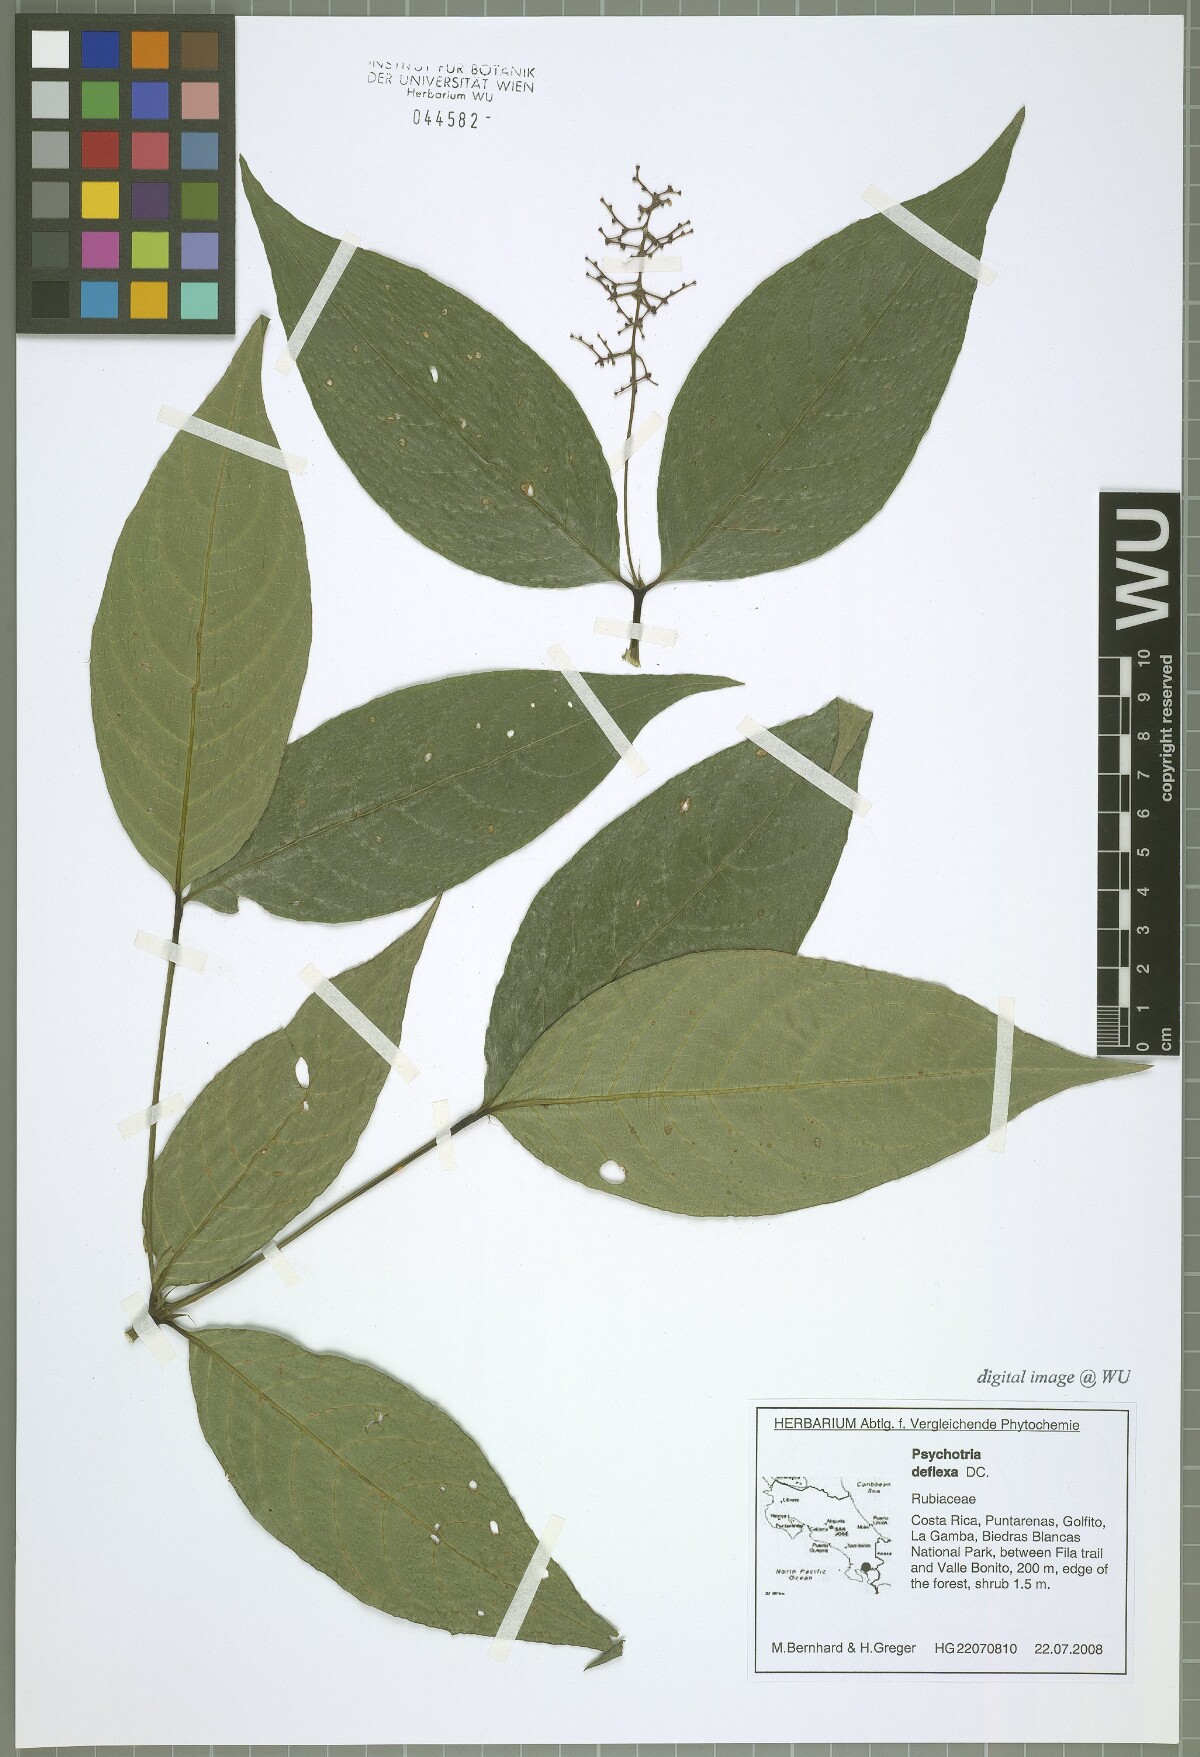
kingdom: Plantae
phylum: Tracheophyta
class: Magnoliopsida
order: Gentianales
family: Rubiaceae
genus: Palicourea
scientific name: Palicourea deflexa
